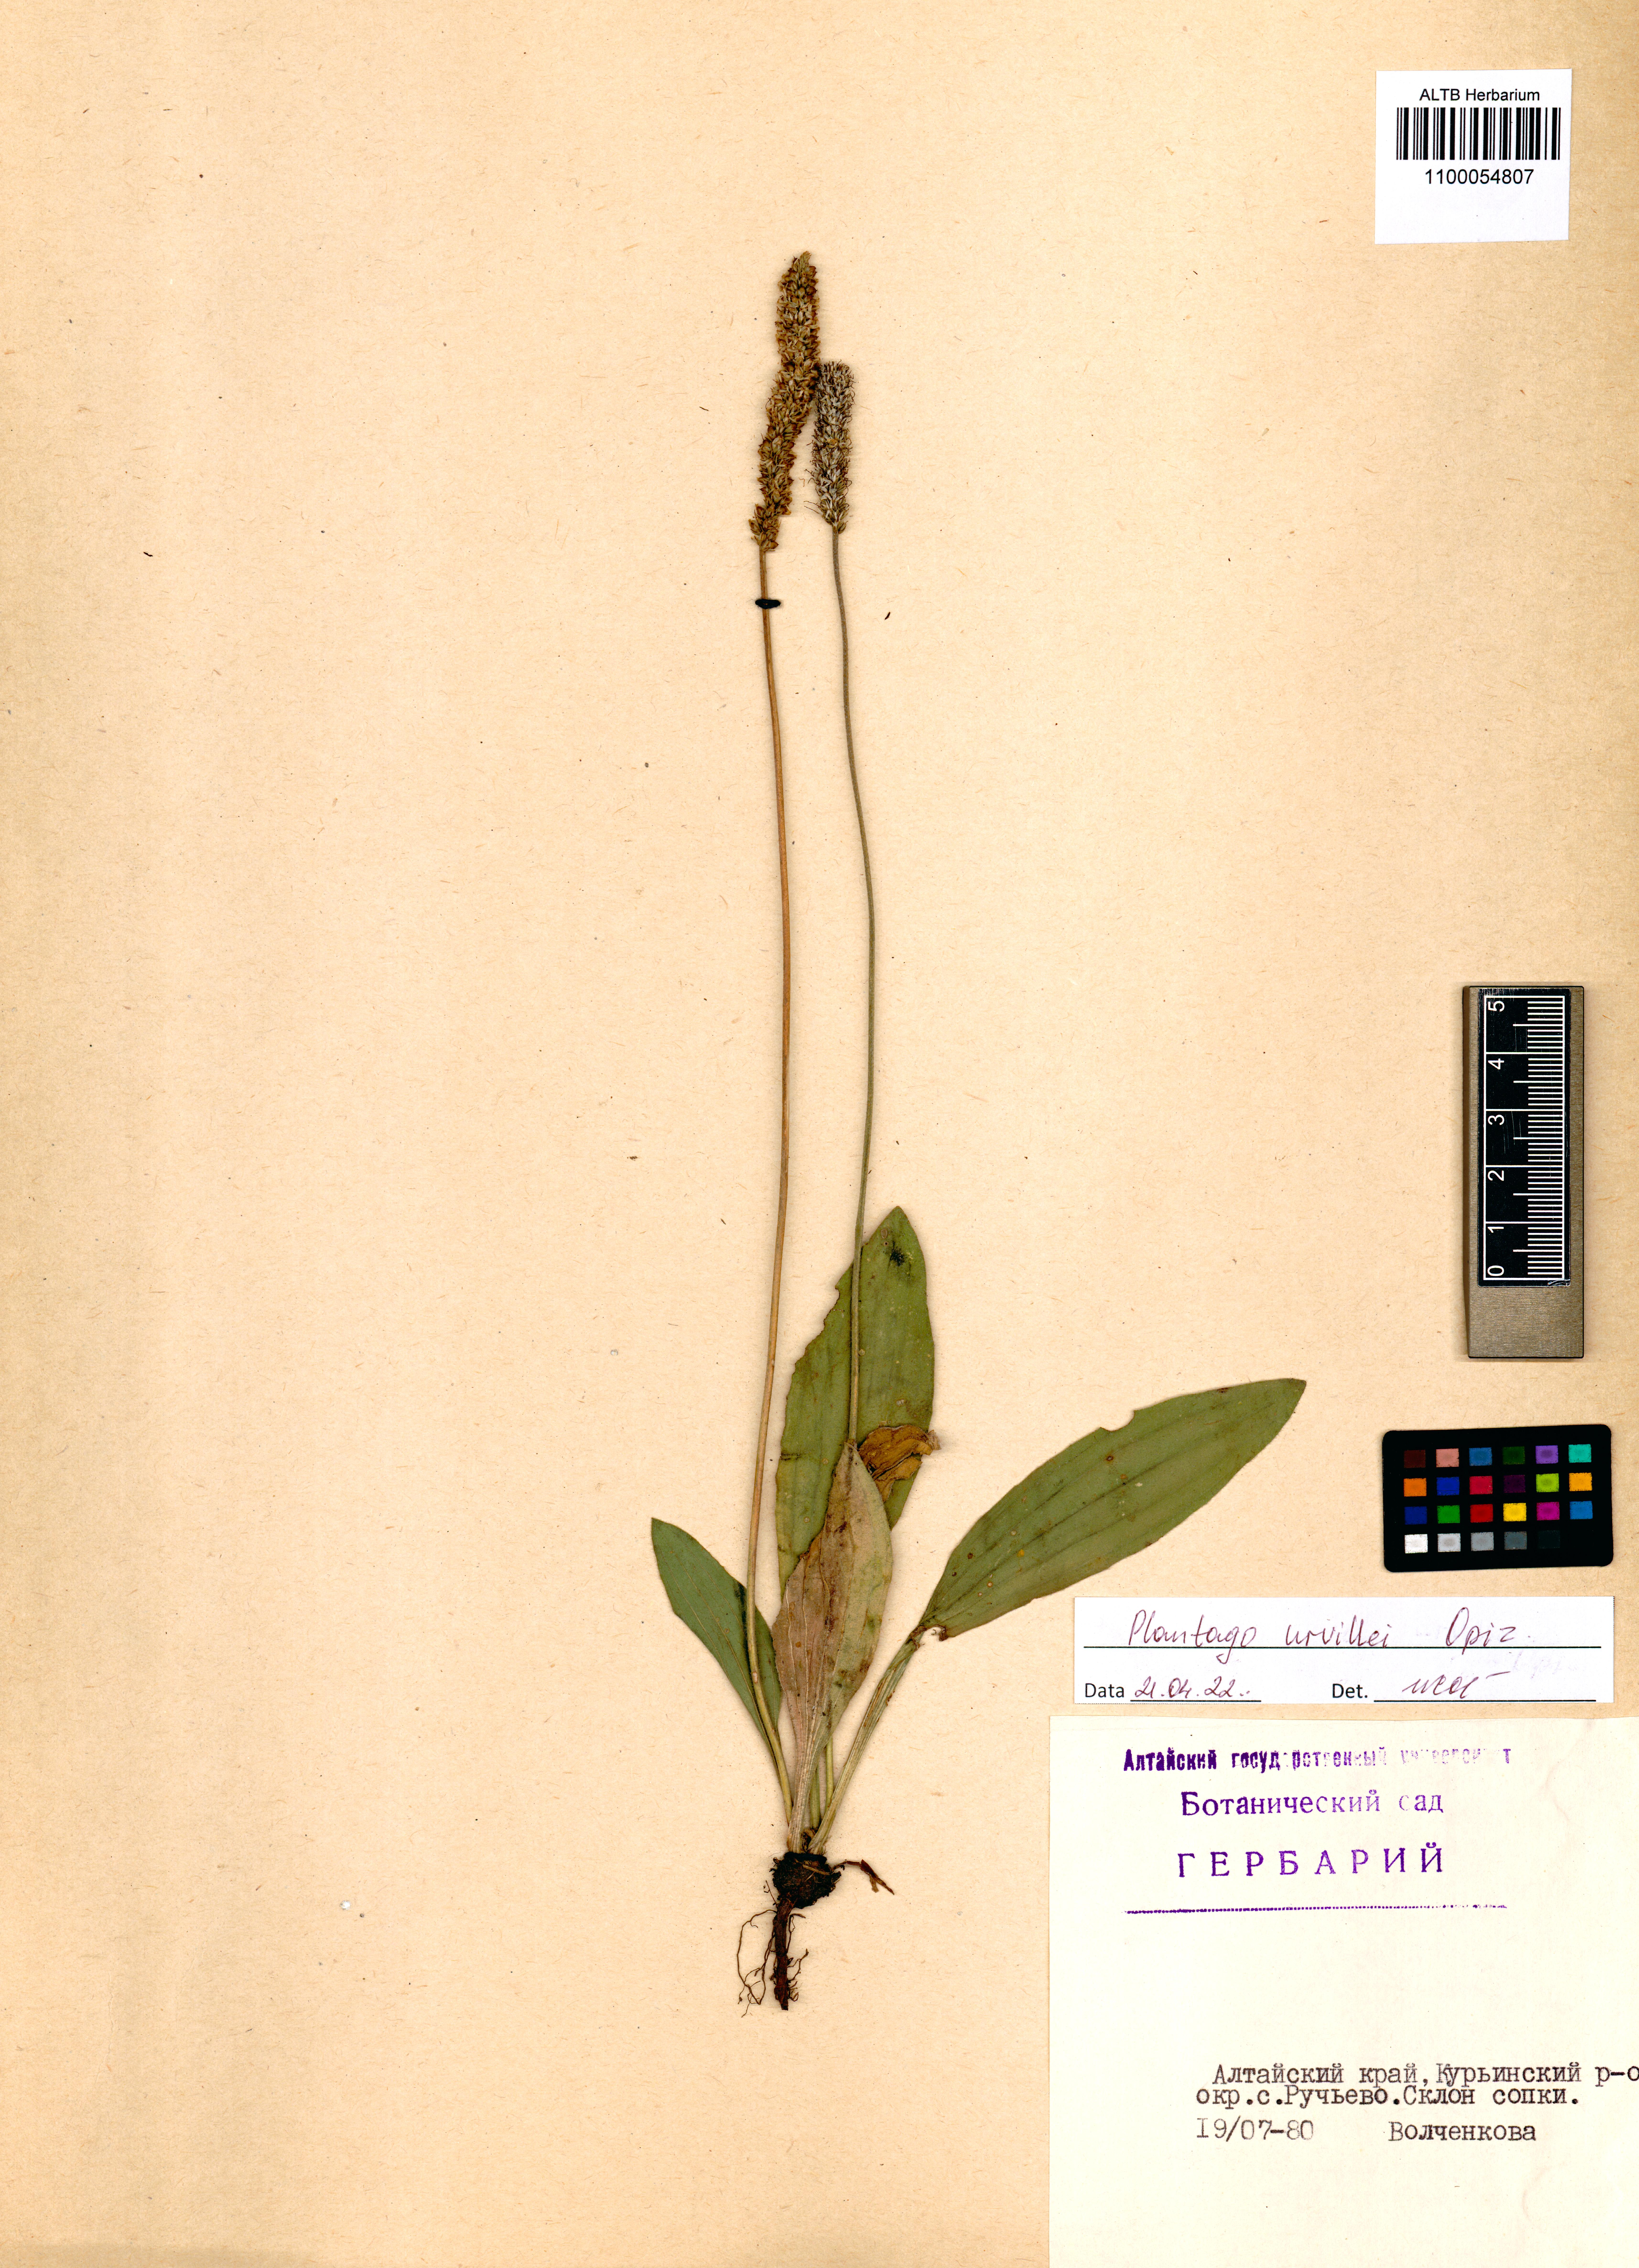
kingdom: Plantae
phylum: Tracheophyta
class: Magnoliopsida
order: Lamiales
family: Plantaginaceae
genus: Plantago
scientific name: Plantago urvillei
